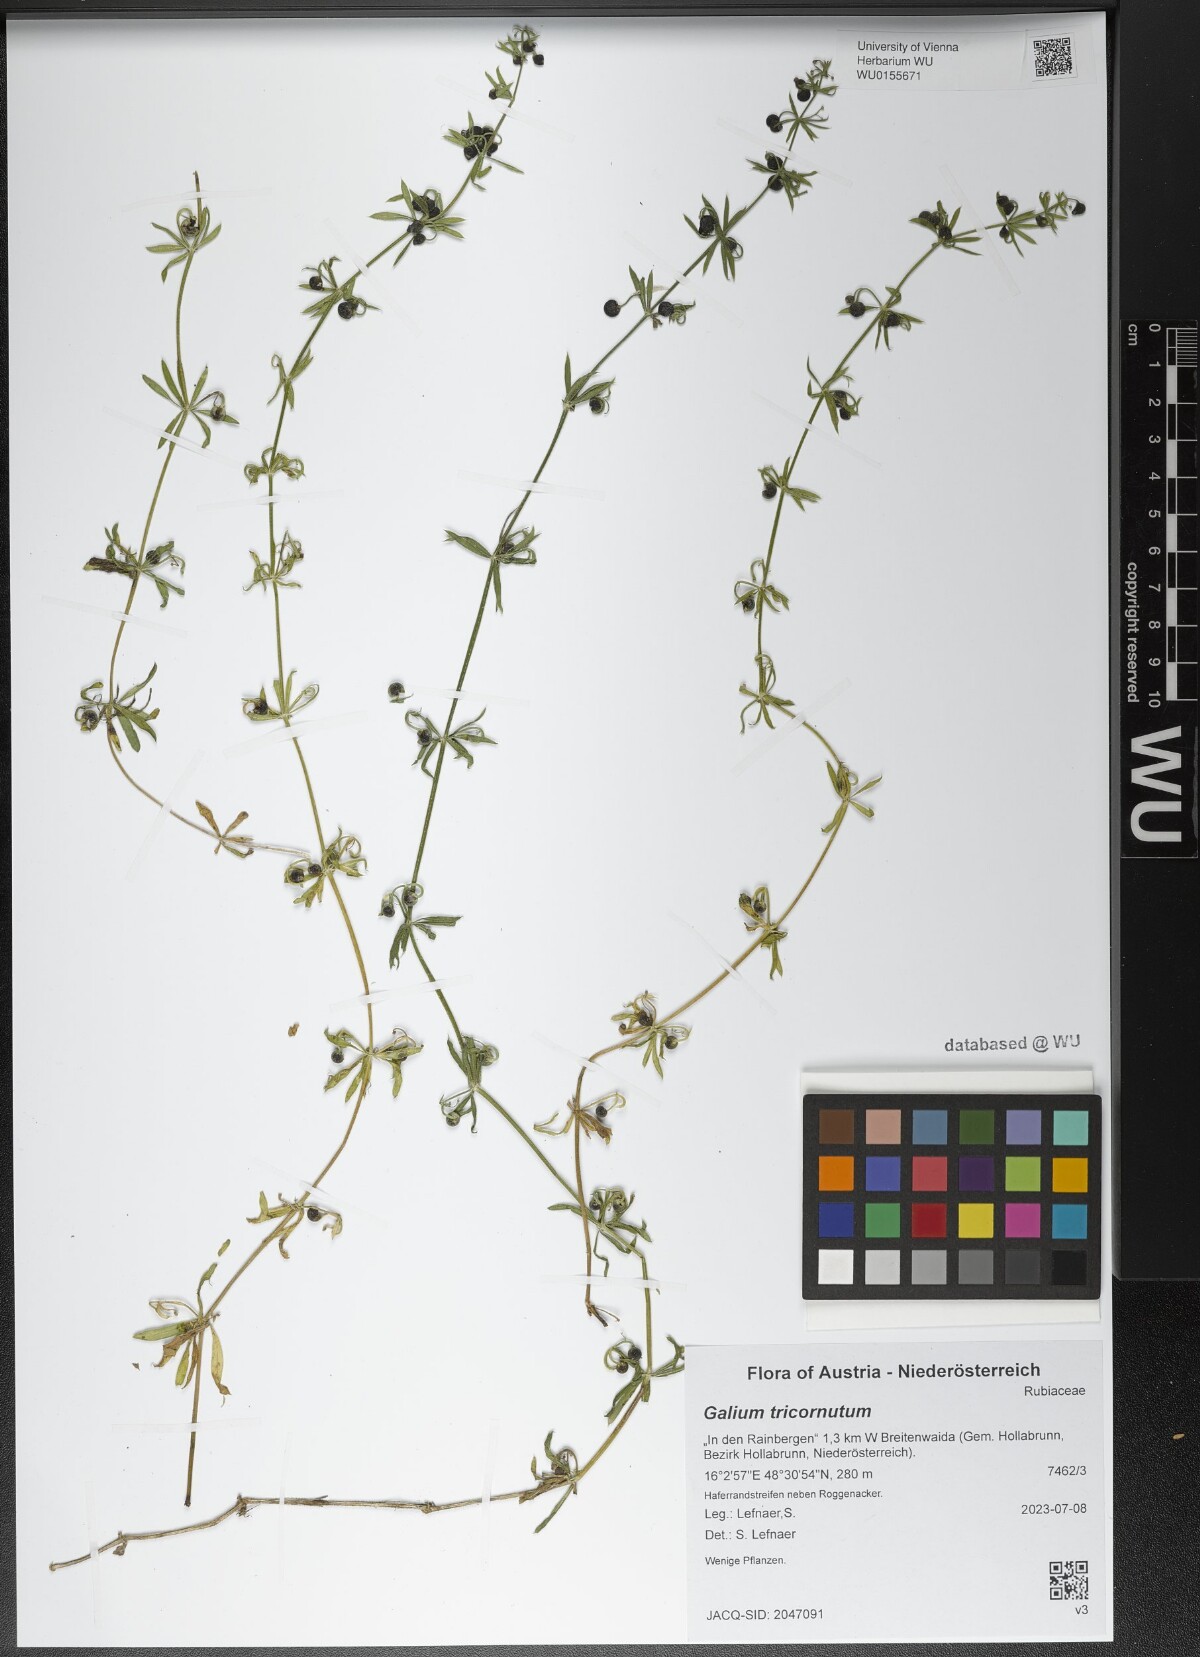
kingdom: Plantae
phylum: Tracheophyta
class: Magnoliopsida
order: Gentianales
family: Rubiaceae
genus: Galium
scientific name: Galium tricornutum
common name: Corn cleavers
